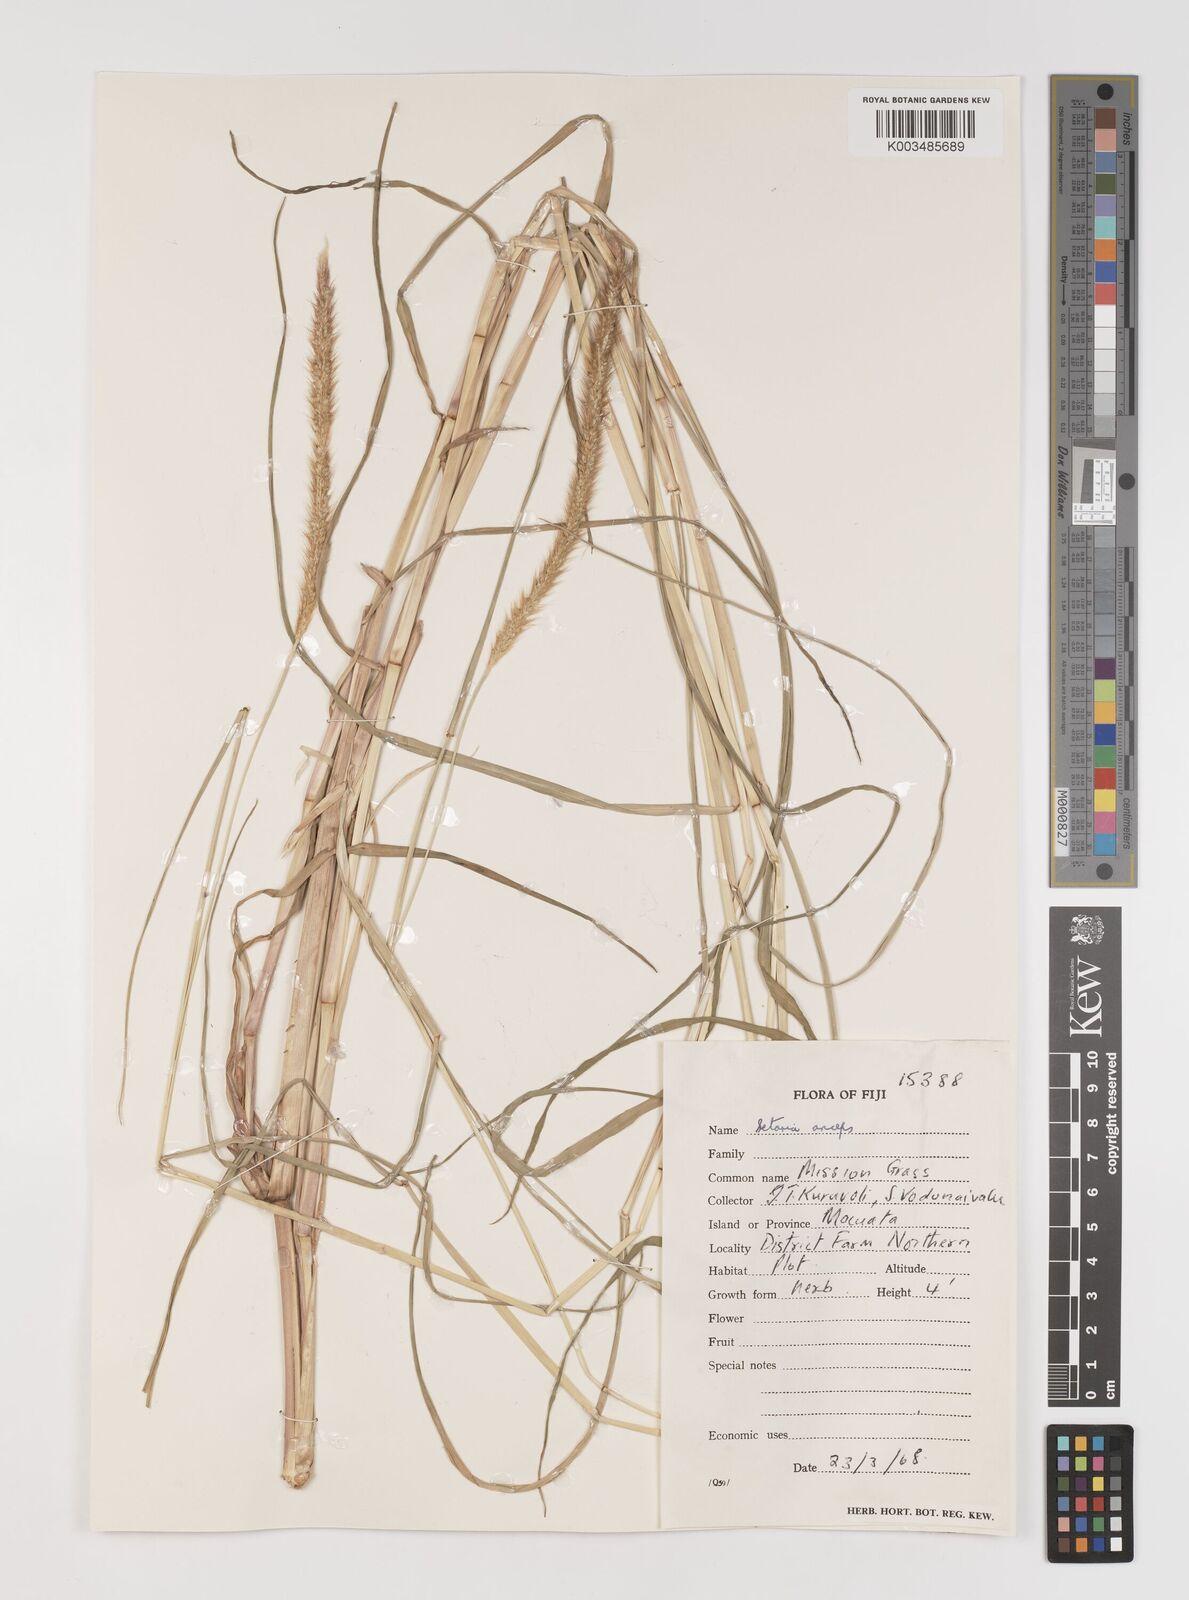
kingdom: Plantae
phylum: Tracheophyta
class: Liliopsida
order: Poales
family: Poaceae
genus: Setaria
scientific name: Setaria sphacelata
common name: African bristlegrass
